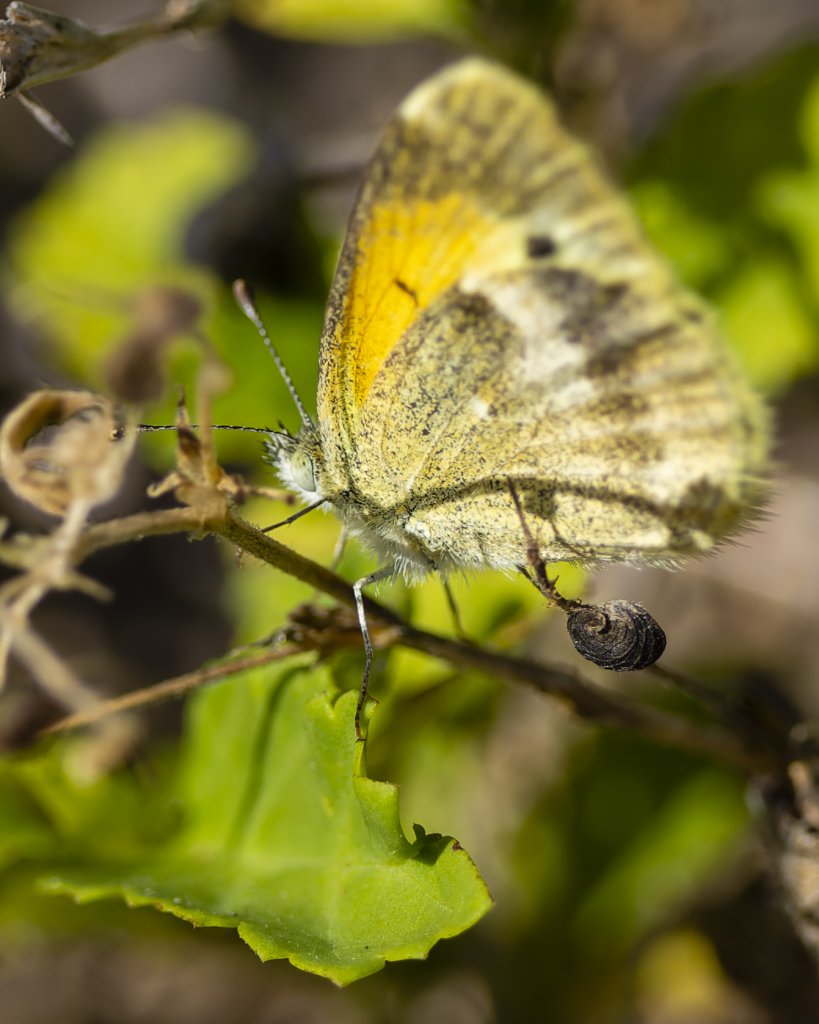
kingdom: Animalia
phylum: Arthropoda
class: Insecta
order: Lepidoptera
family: Pieridae
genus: Nathalis
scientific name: Nathalis iole
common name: Dainty Sulphur
